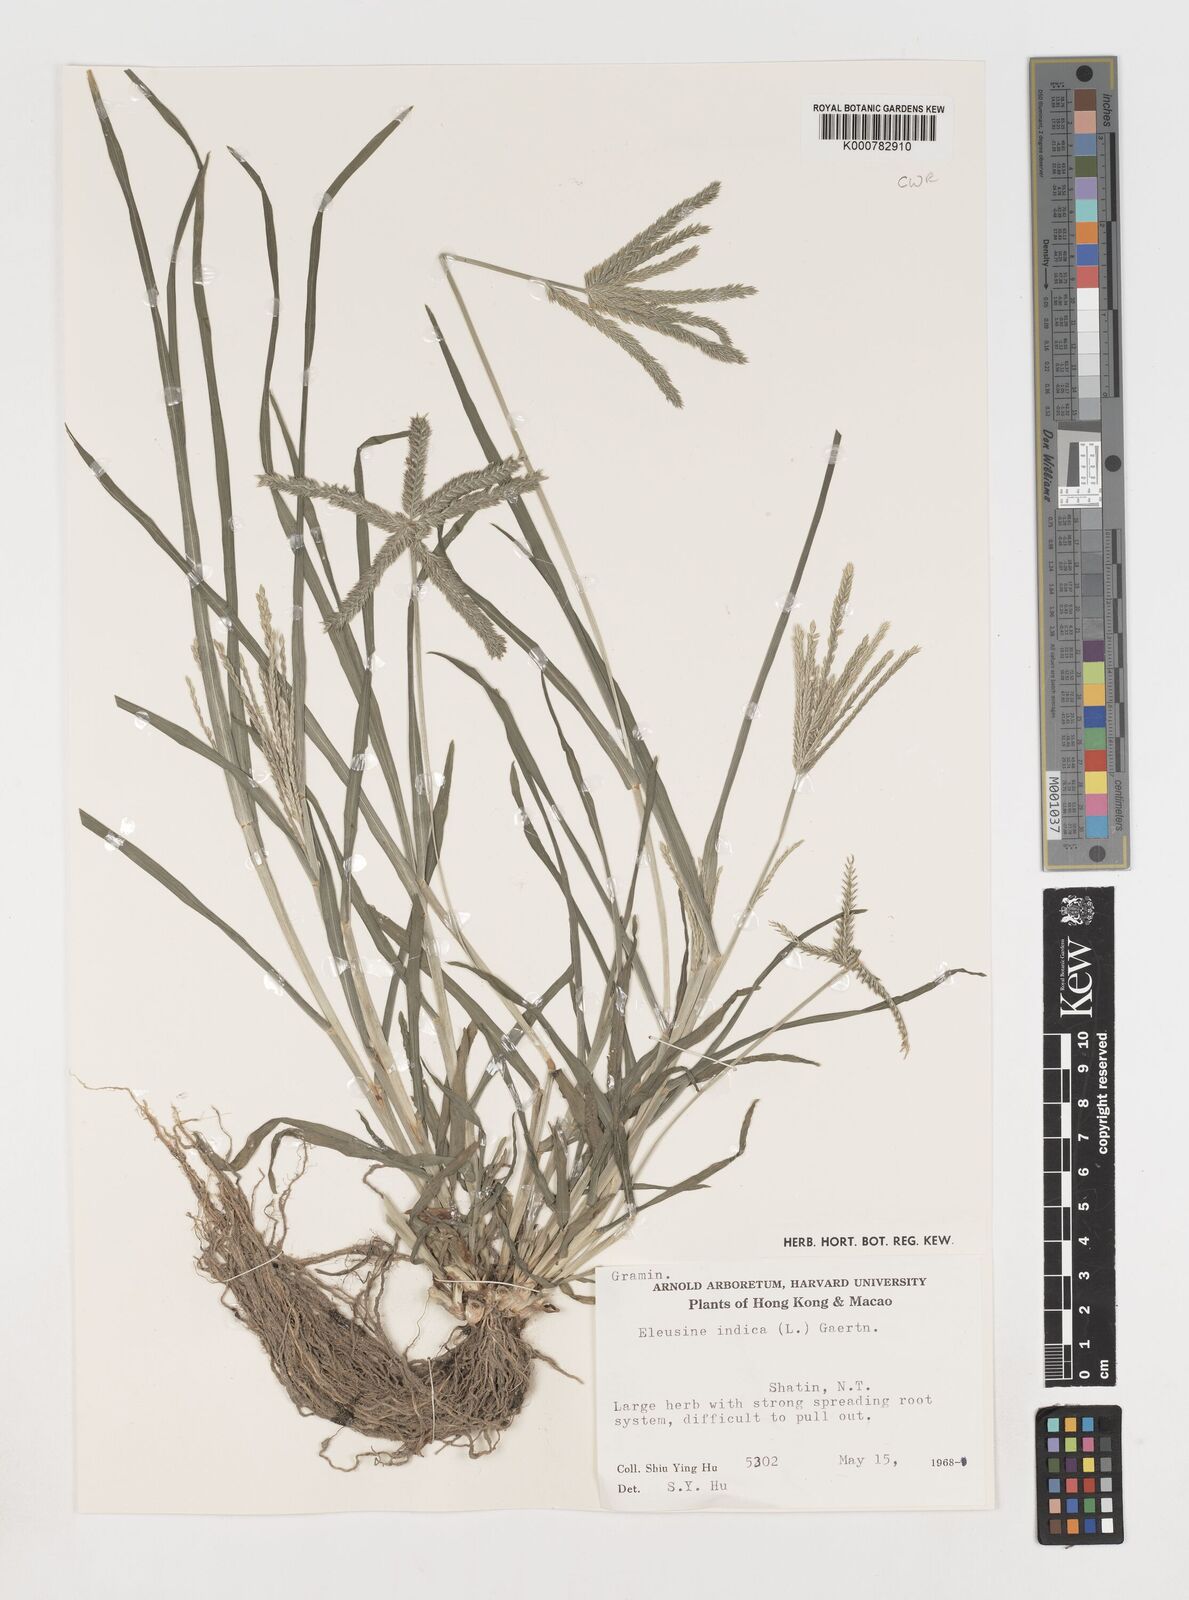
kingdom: Plantae
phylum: Tracheophyta
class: Liliopsida
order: Poales
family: Poaceae
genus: Eleusine
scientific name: Eleusine indica
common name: Yard-grass
